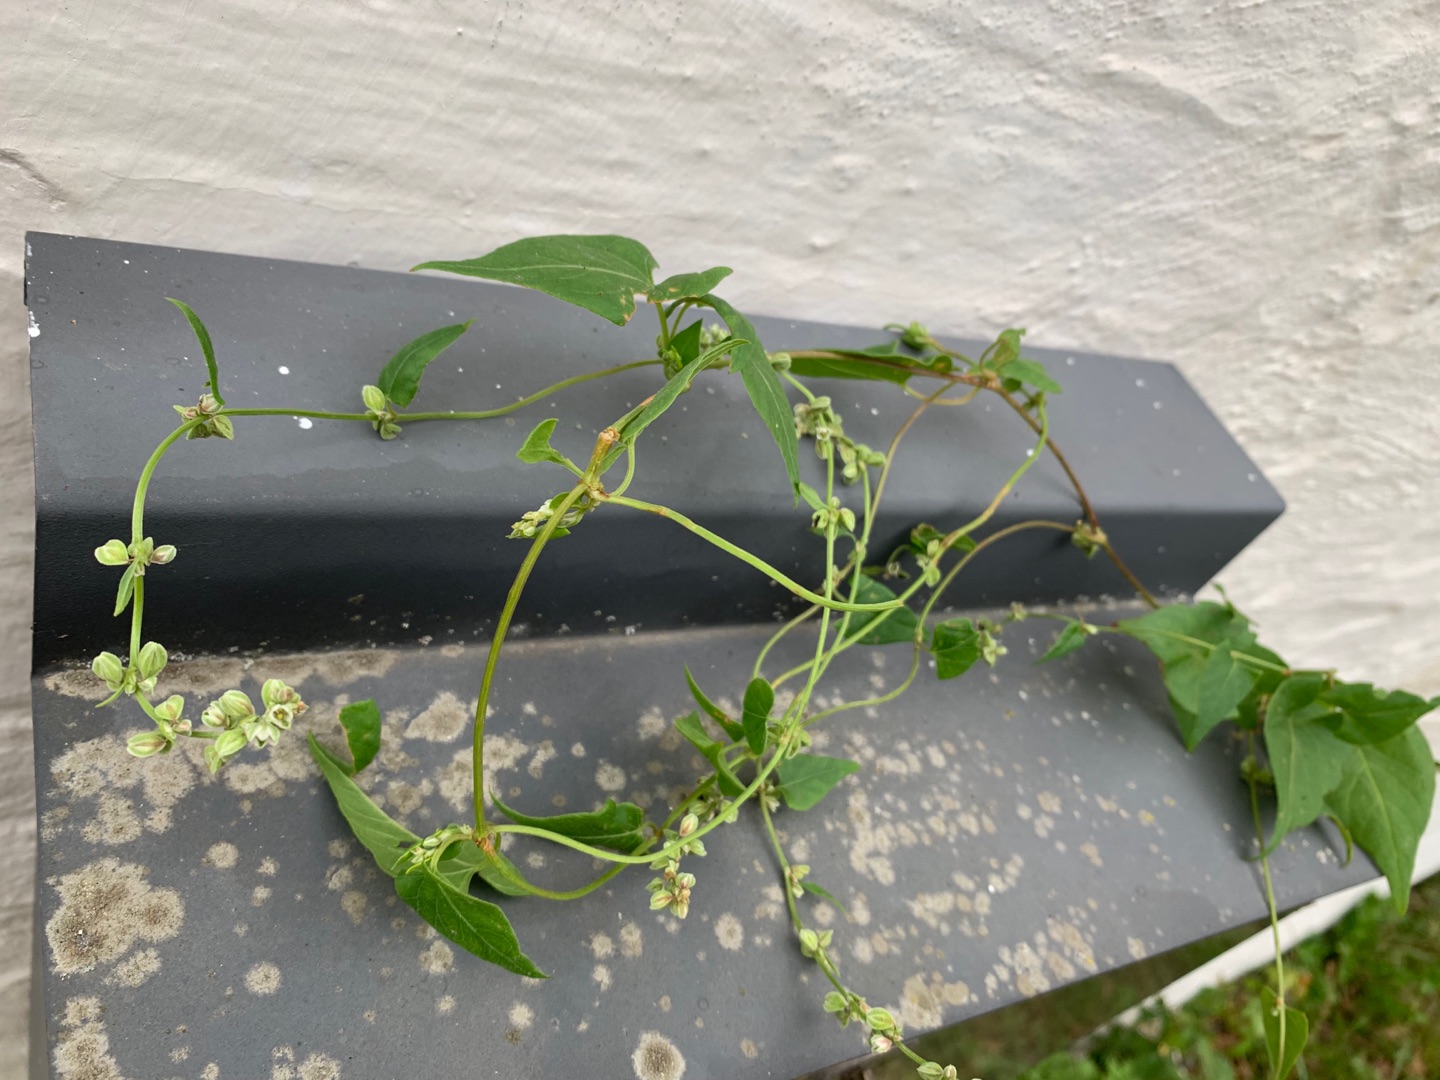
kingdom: Plantae
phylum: Tracheophyta
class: Magnoliopsida
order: Caryophyllales
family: Polygonaceae
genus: Fallopia
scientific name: Fallopia convolvulus
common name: Snerle-pileurt
